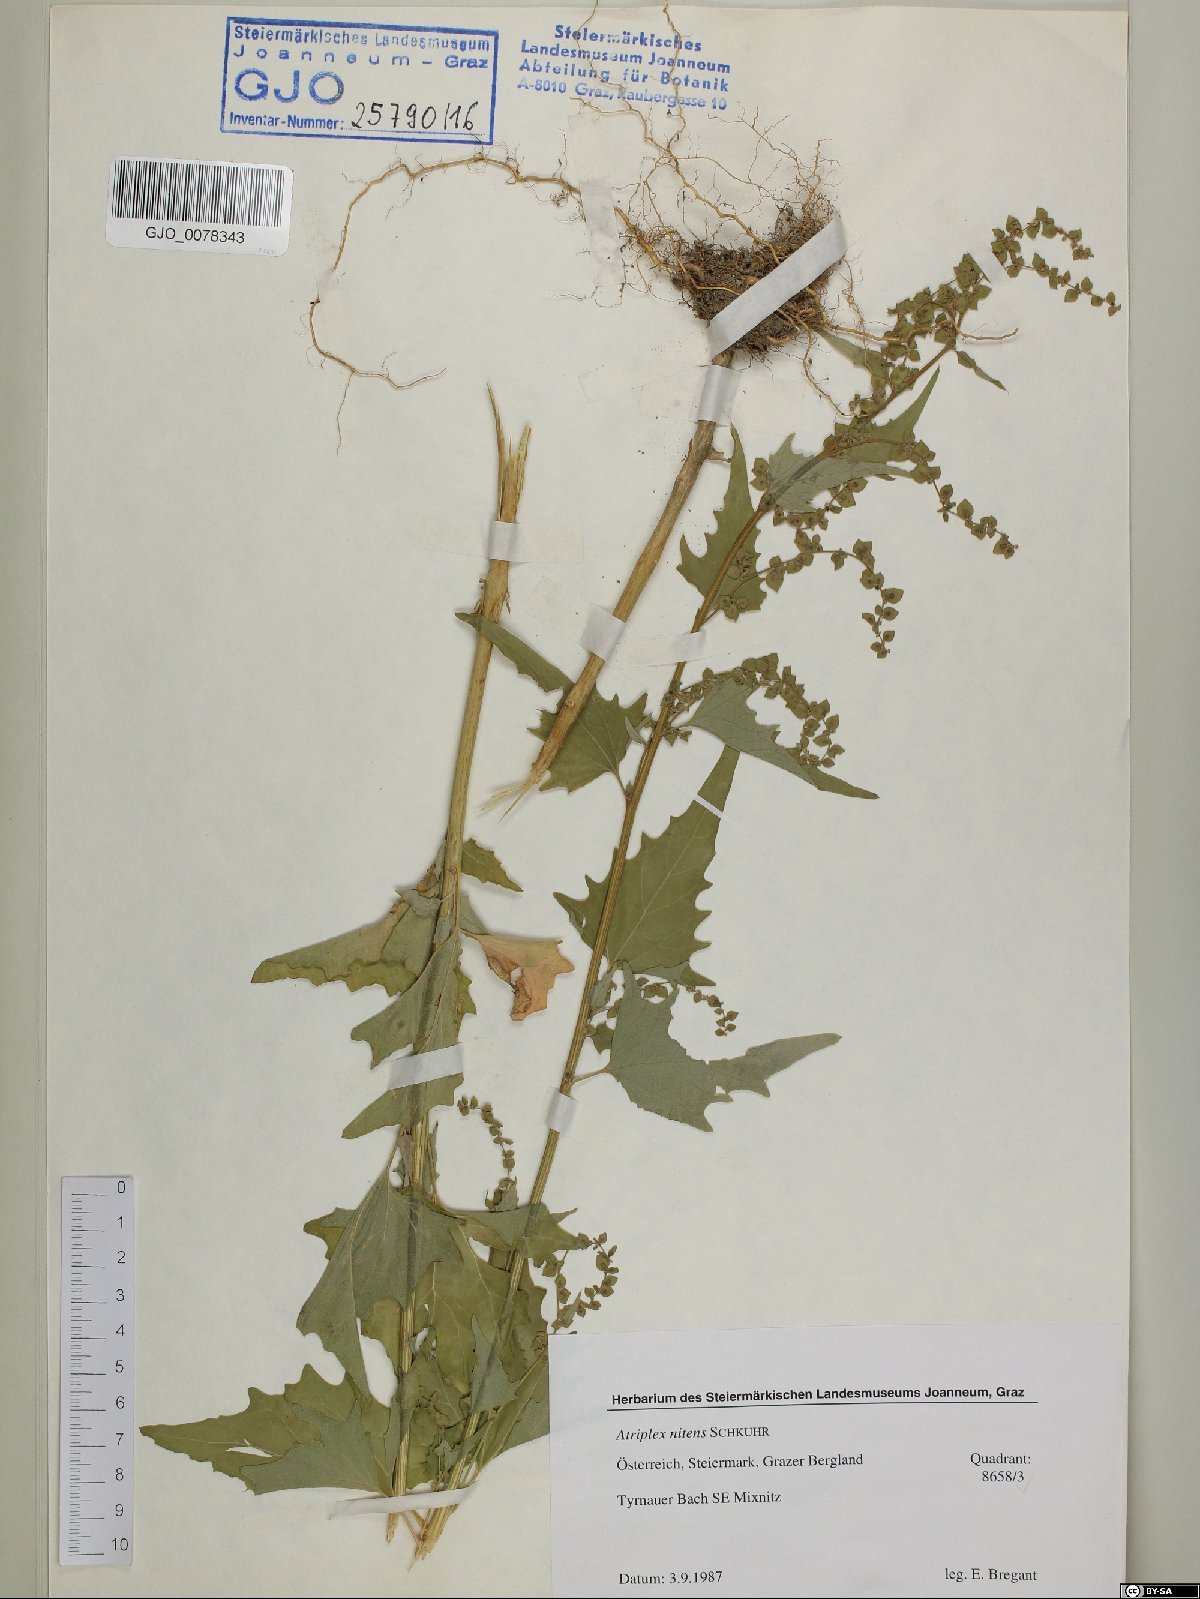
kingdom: Plantae
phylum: Tracheophyta
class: Magnoliopsida
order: Caryophyllales
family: Amaranthaceae
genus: Atriplex
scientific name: Atriplex sagittata
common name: Purple orache
